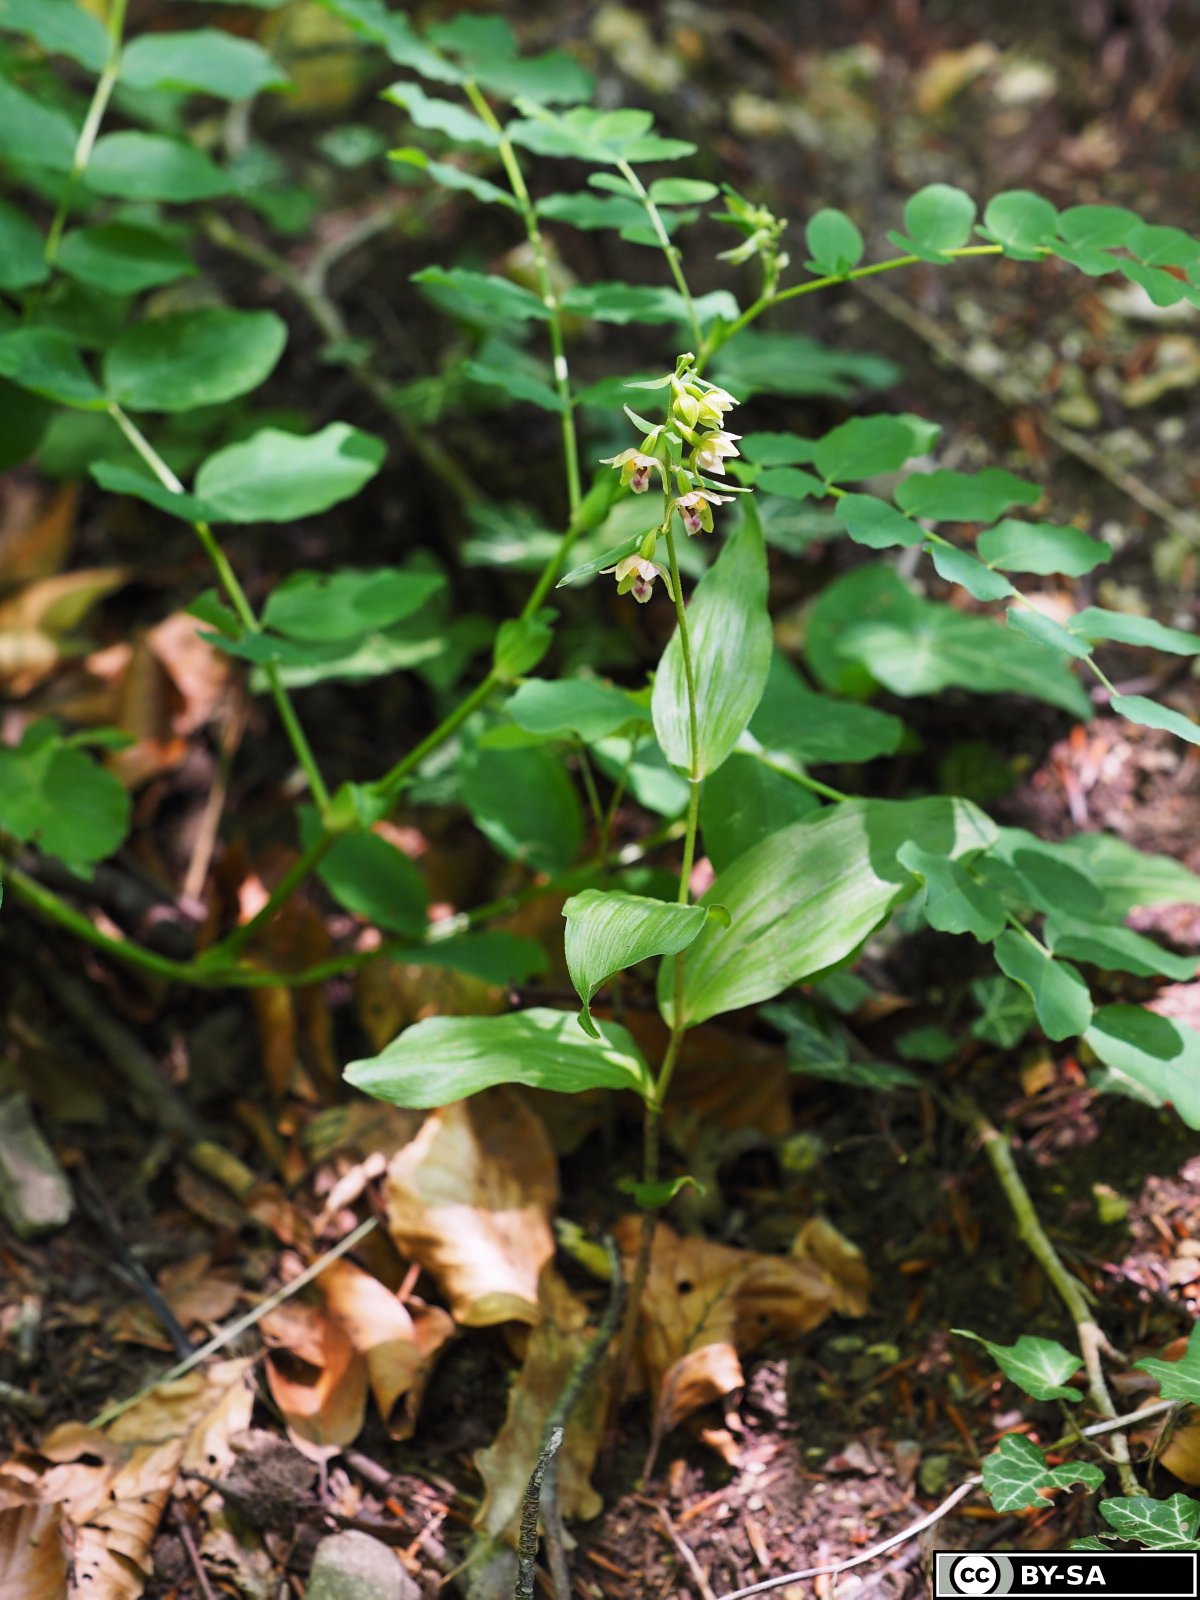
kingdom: Plantae
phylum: Tracheophyta
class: Liliopsida
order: Asparagales
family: Orchidaceae
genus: Epipactis
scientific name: Epipactis helleborine
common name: Broad-leaved helleborine
